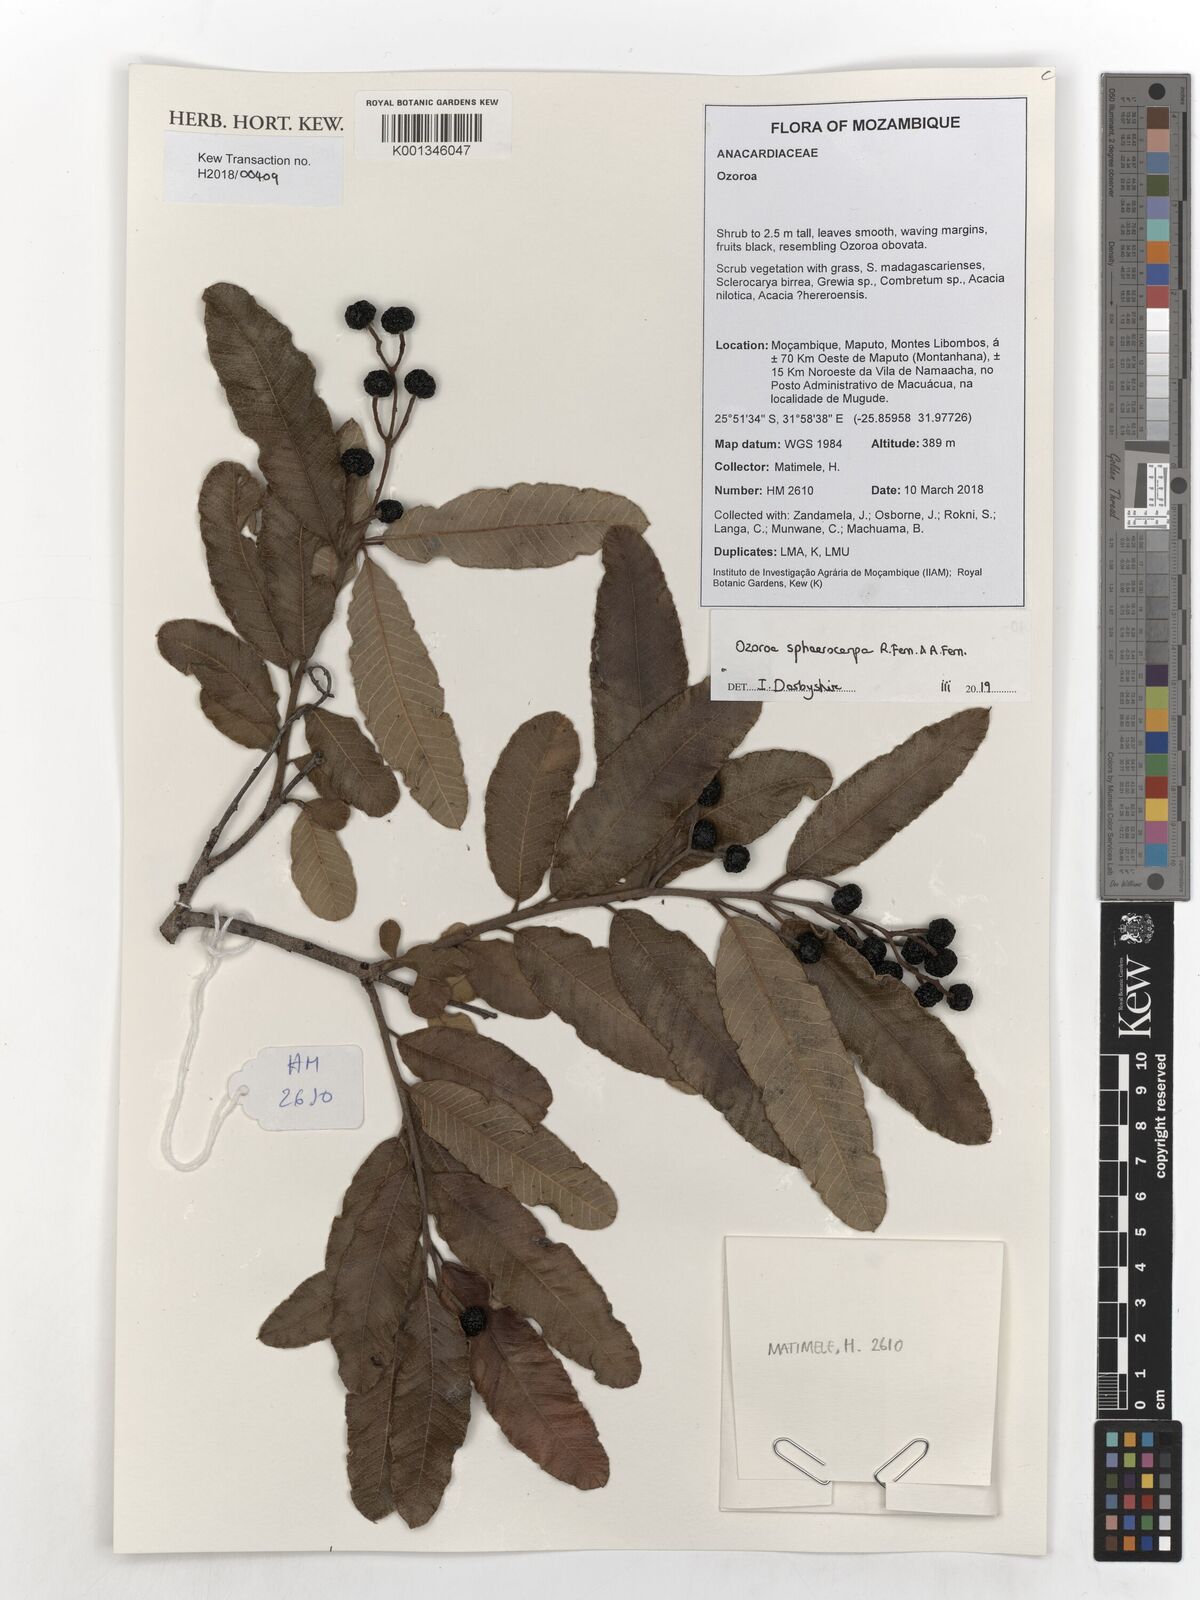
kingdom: Plantae
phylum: Tracheophyta
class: Magnoliopsida
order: Sapindales
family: Anacardiaceae
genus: Ozoroa
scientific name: Ozoroa sphaerocarpa
